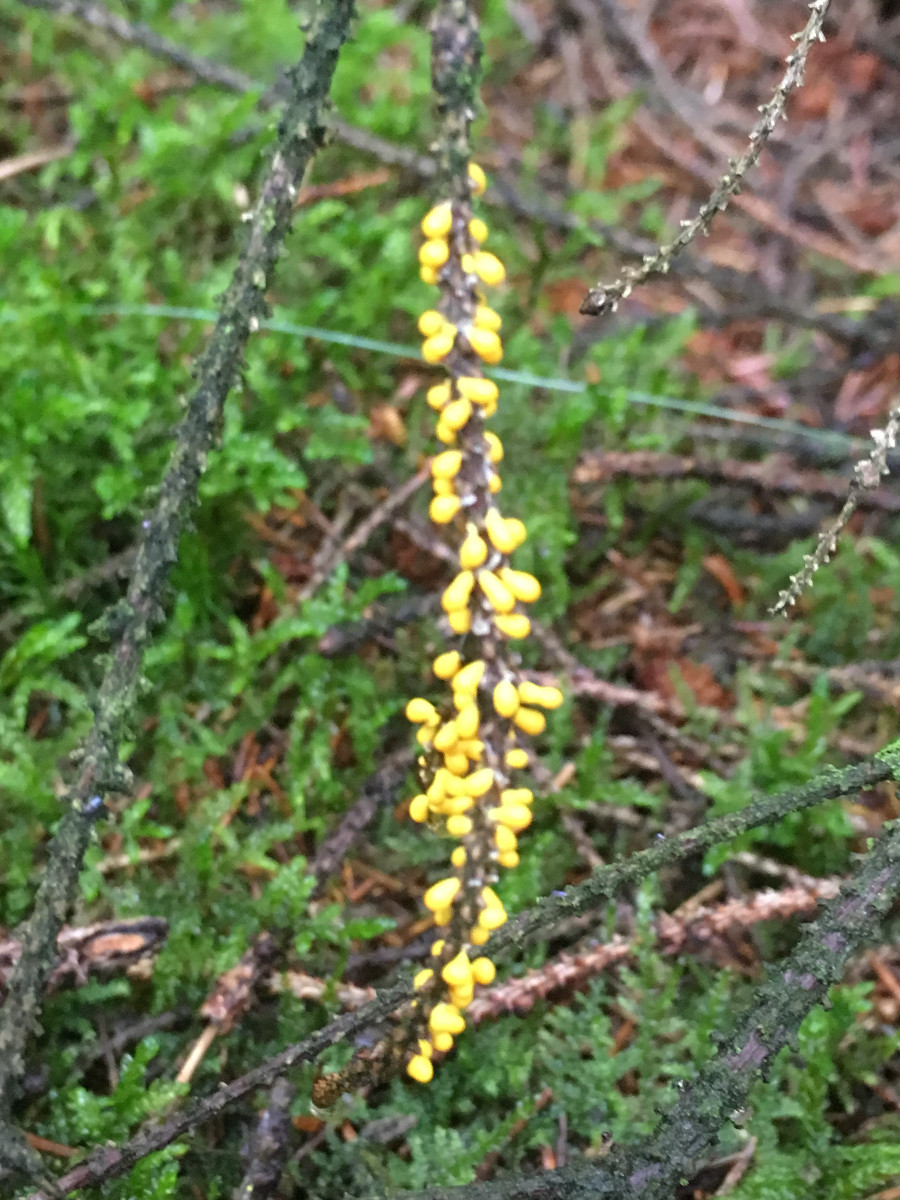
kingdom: Protozoa
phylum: Mycetozoa
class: Myxomycetes
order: Physarales
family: Physaraceae
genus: Leocarpus
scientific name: Leocarpus fragilis
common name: poleret glatfrø
